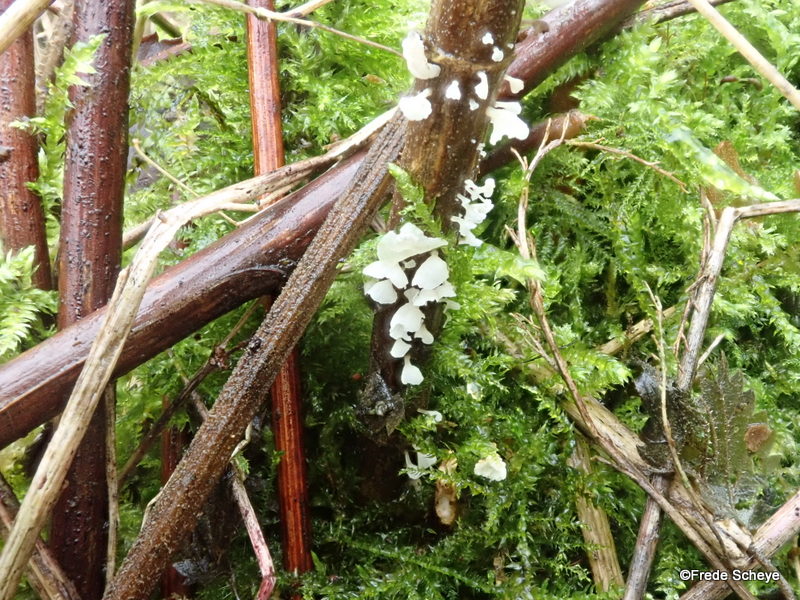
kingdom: Fungi
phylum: Basidiomycota
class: Agaricomycetes
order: Agaricales
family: Marasmiaceae
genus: Calyptella
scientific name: Calyptella capula
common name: hvidlig nældehue
